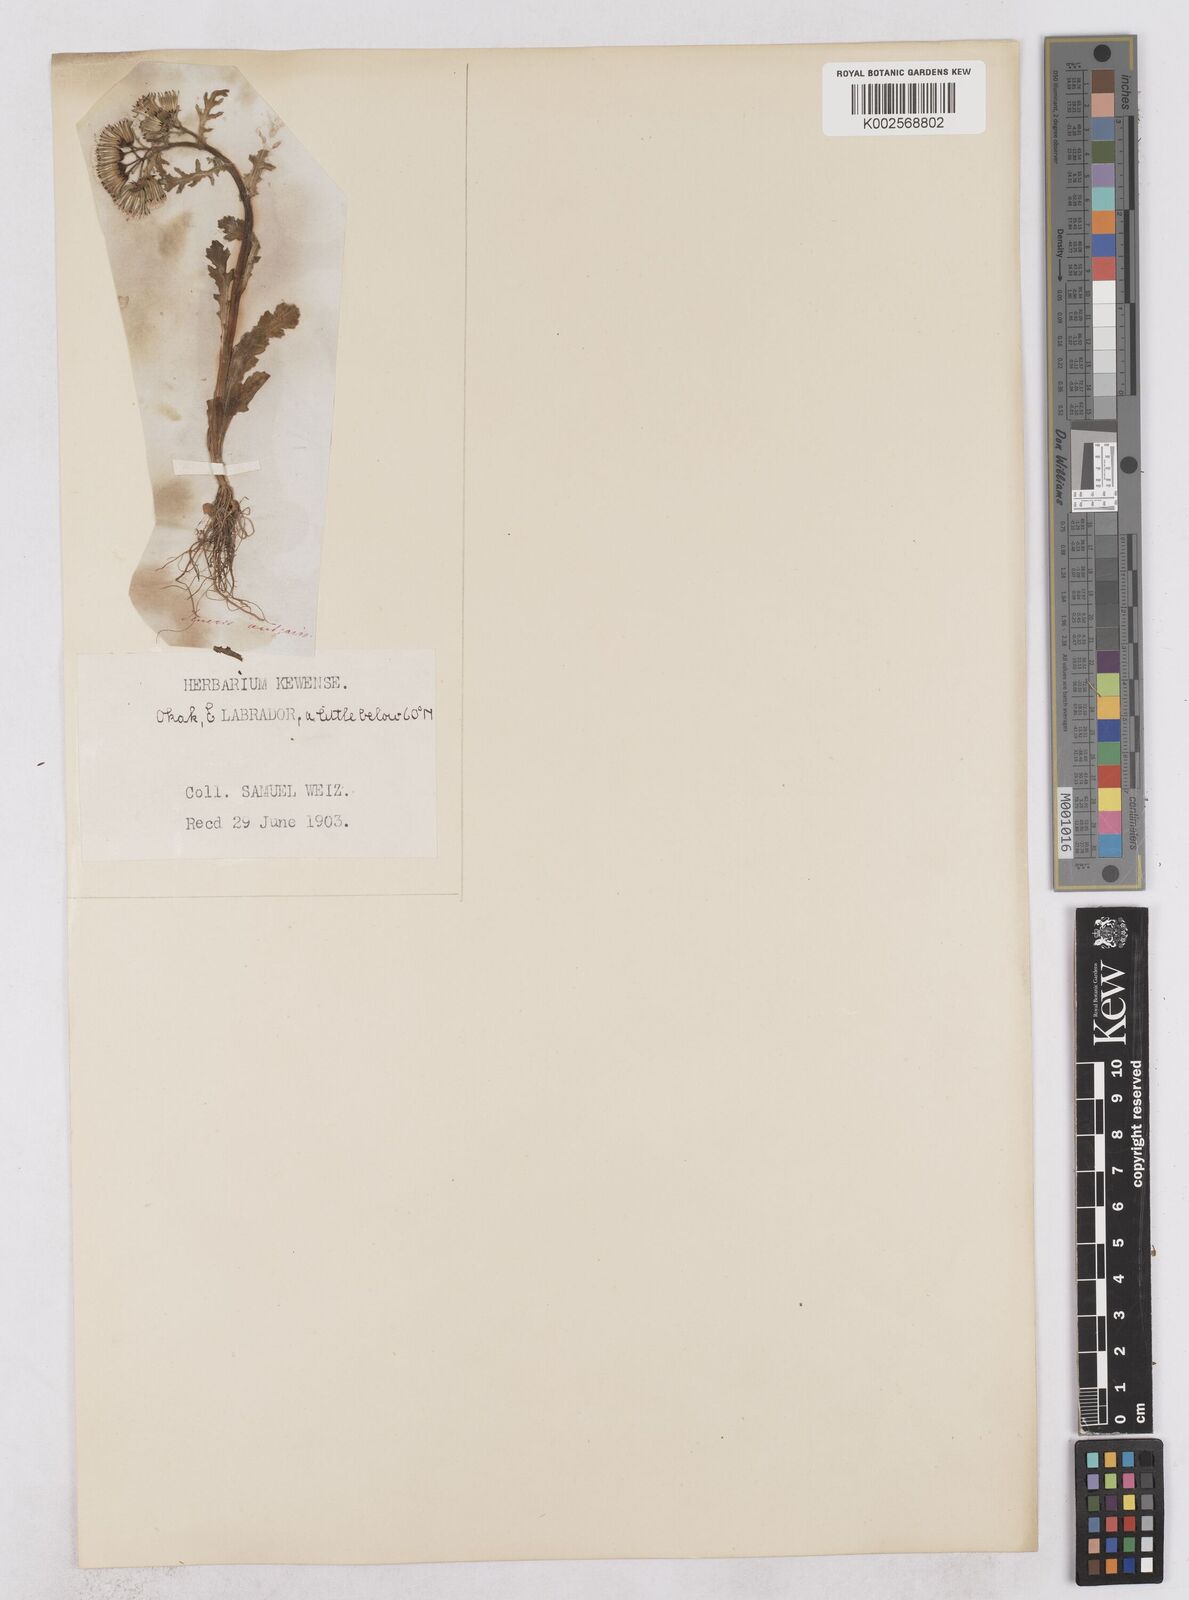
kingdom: Plantae
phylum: Tracheophyta
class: Magnoliopsida
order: Asterales
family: Asteraceae
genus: Senecio
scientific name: Senecio vulgaris
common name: Old-man-in-the-spring
